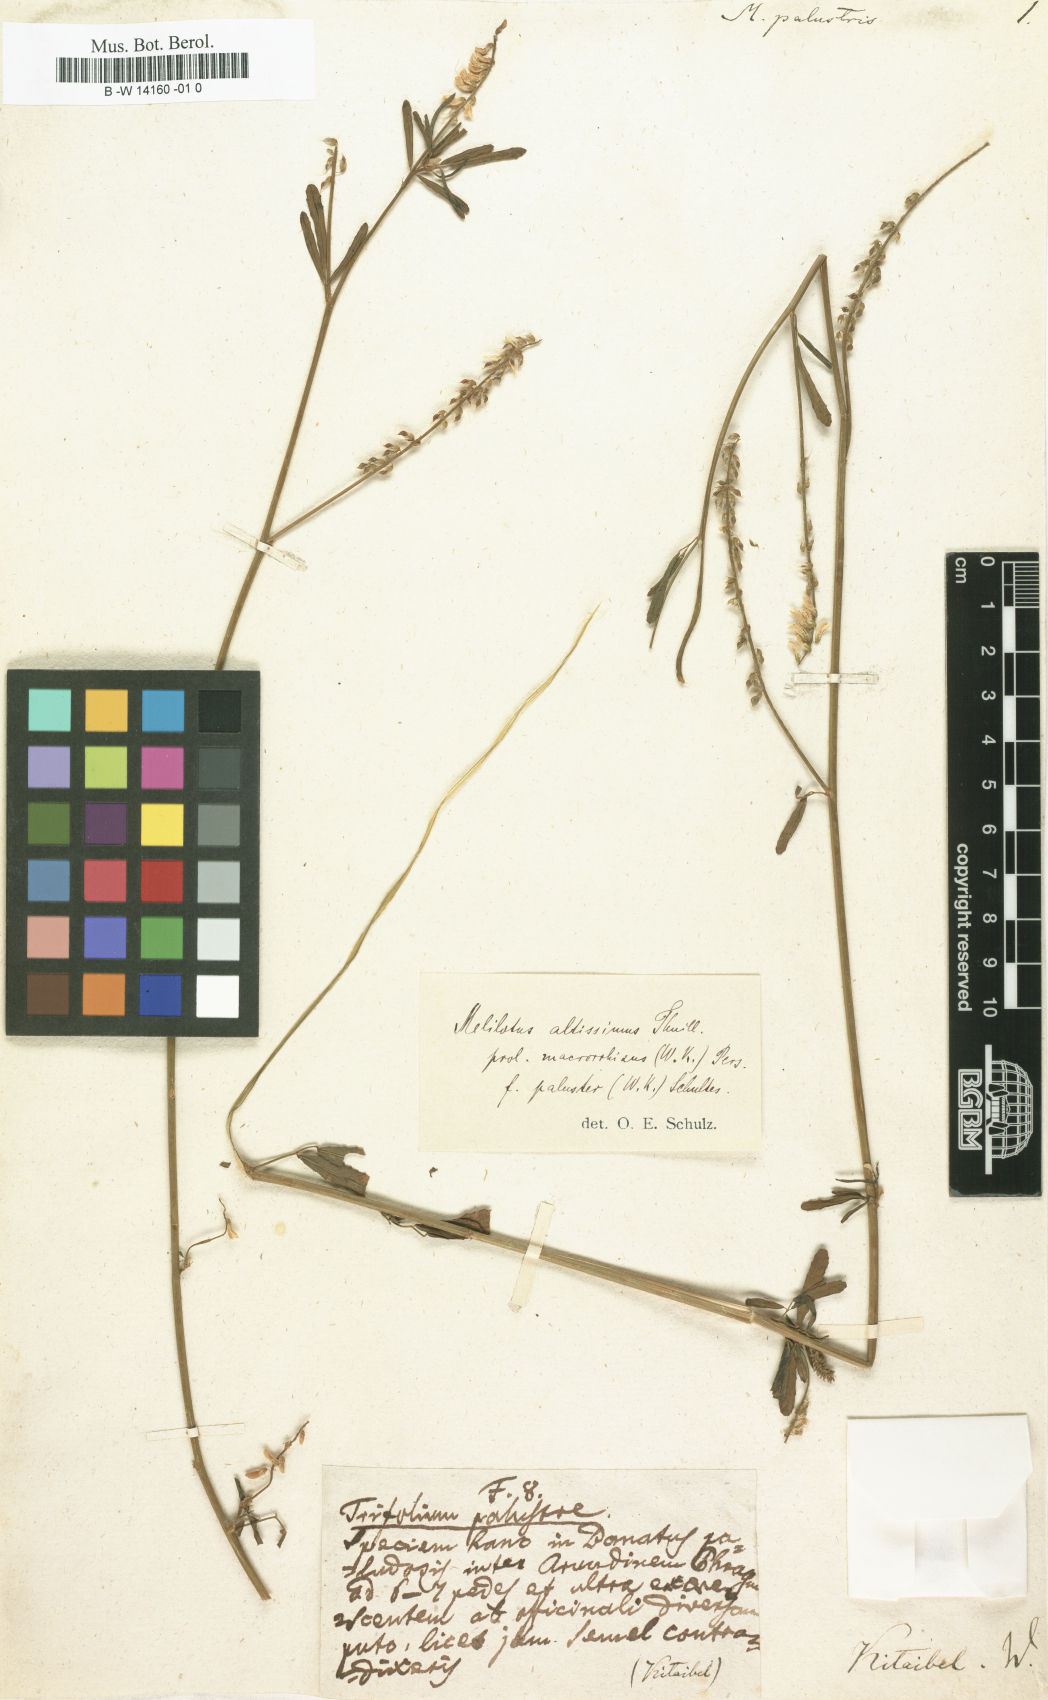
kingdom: Plantae
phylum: Tracheophyta
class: Magnoliopsida
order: Fabales
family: Fabaceae
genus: Melilotus
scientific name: Melilotus officinalis
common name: Sweetclover
